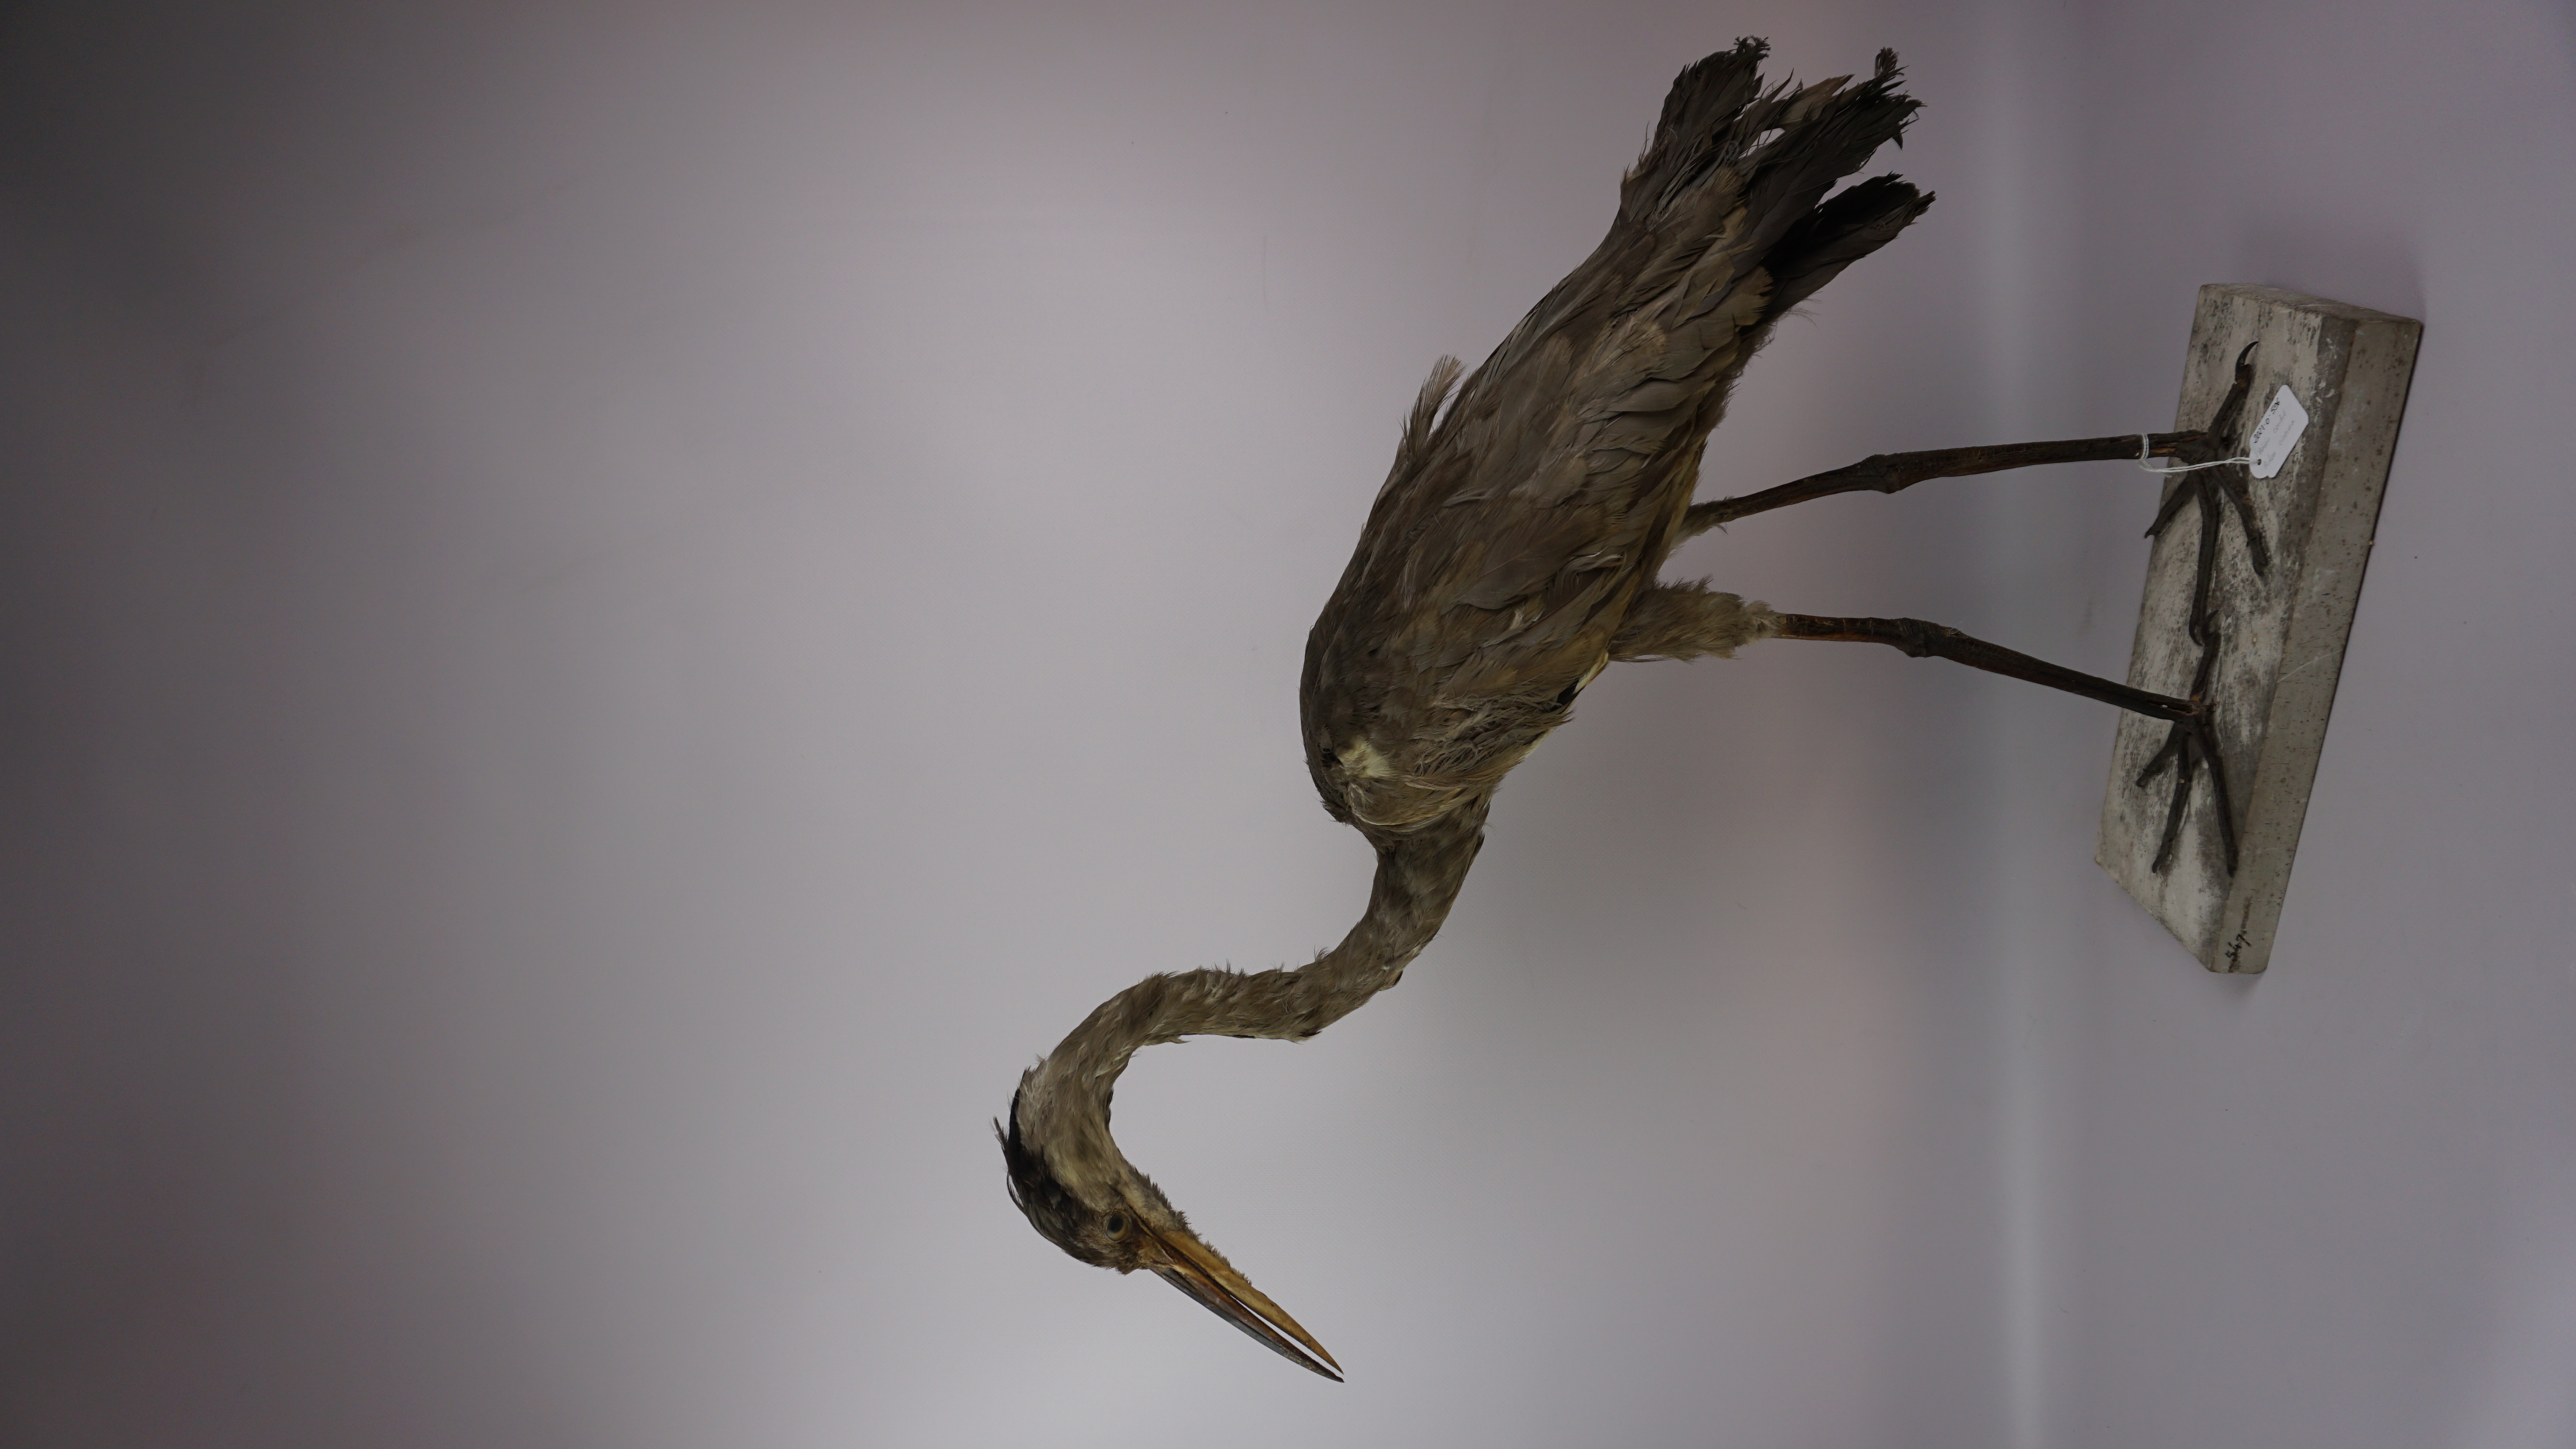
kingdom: Animalia
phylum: Chordata
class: Aves
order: Pelecaniformes
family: Ardeidae
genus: Ardea
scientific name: Ardea cinerea
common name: Grey heron
